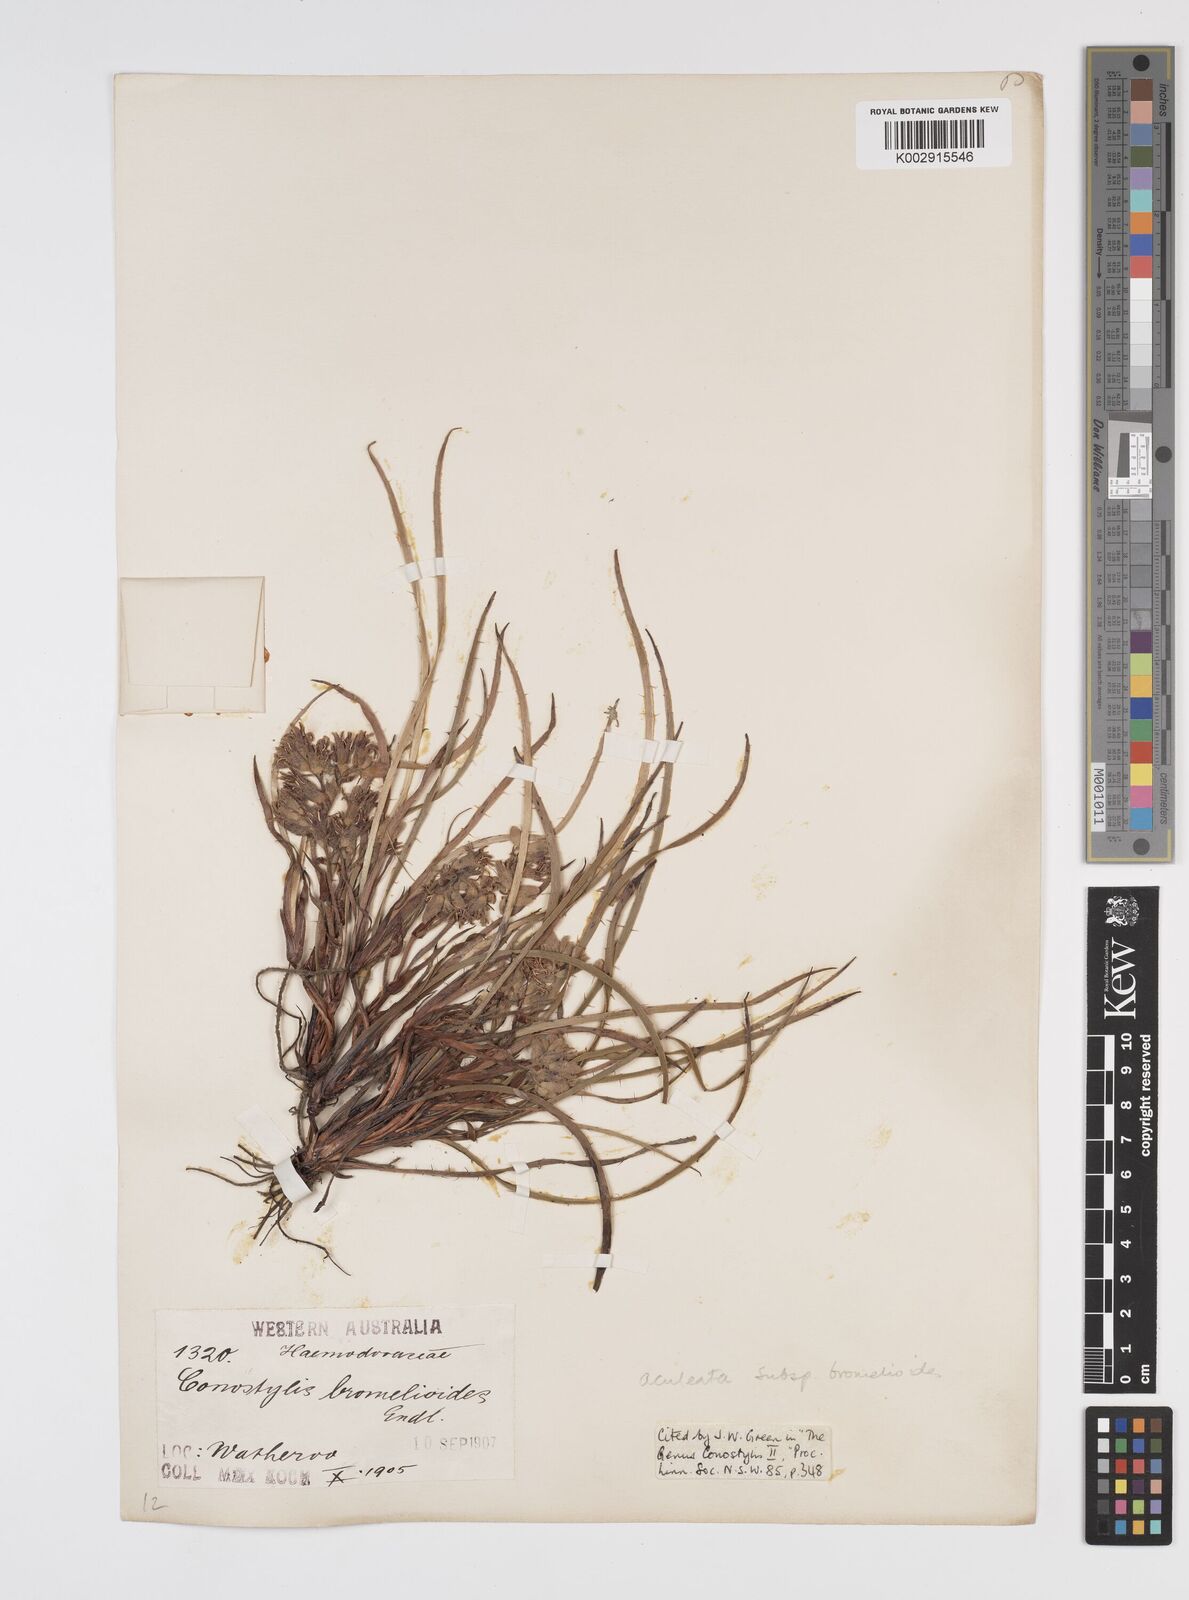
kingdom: Plantae
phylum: Tracheophyta
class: Liliopsida
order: Commelinales
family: Haemodoraceae
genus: Conostylis
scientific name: Conostylis aculeata
